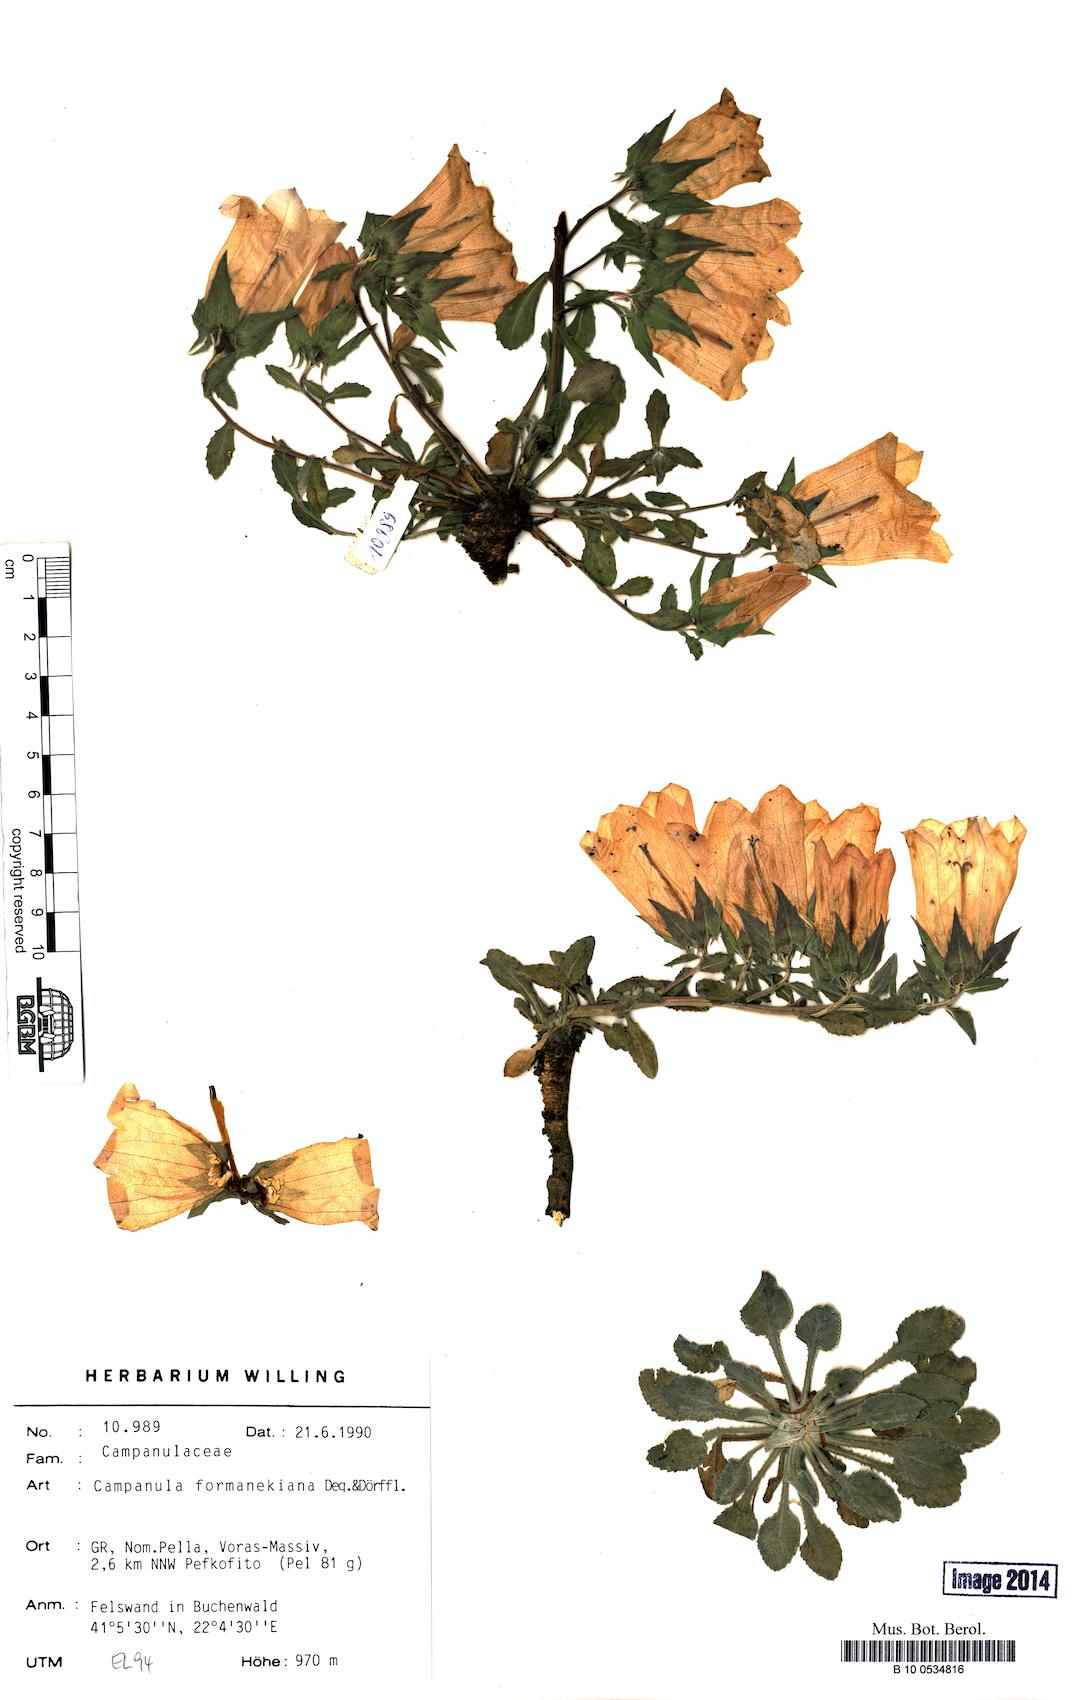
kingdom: Plantae
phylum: Tracheophyta
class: Magnoliopsida
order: Asterales
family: Campanulaceae
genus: Campanula
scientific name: Campanula formanekiana
